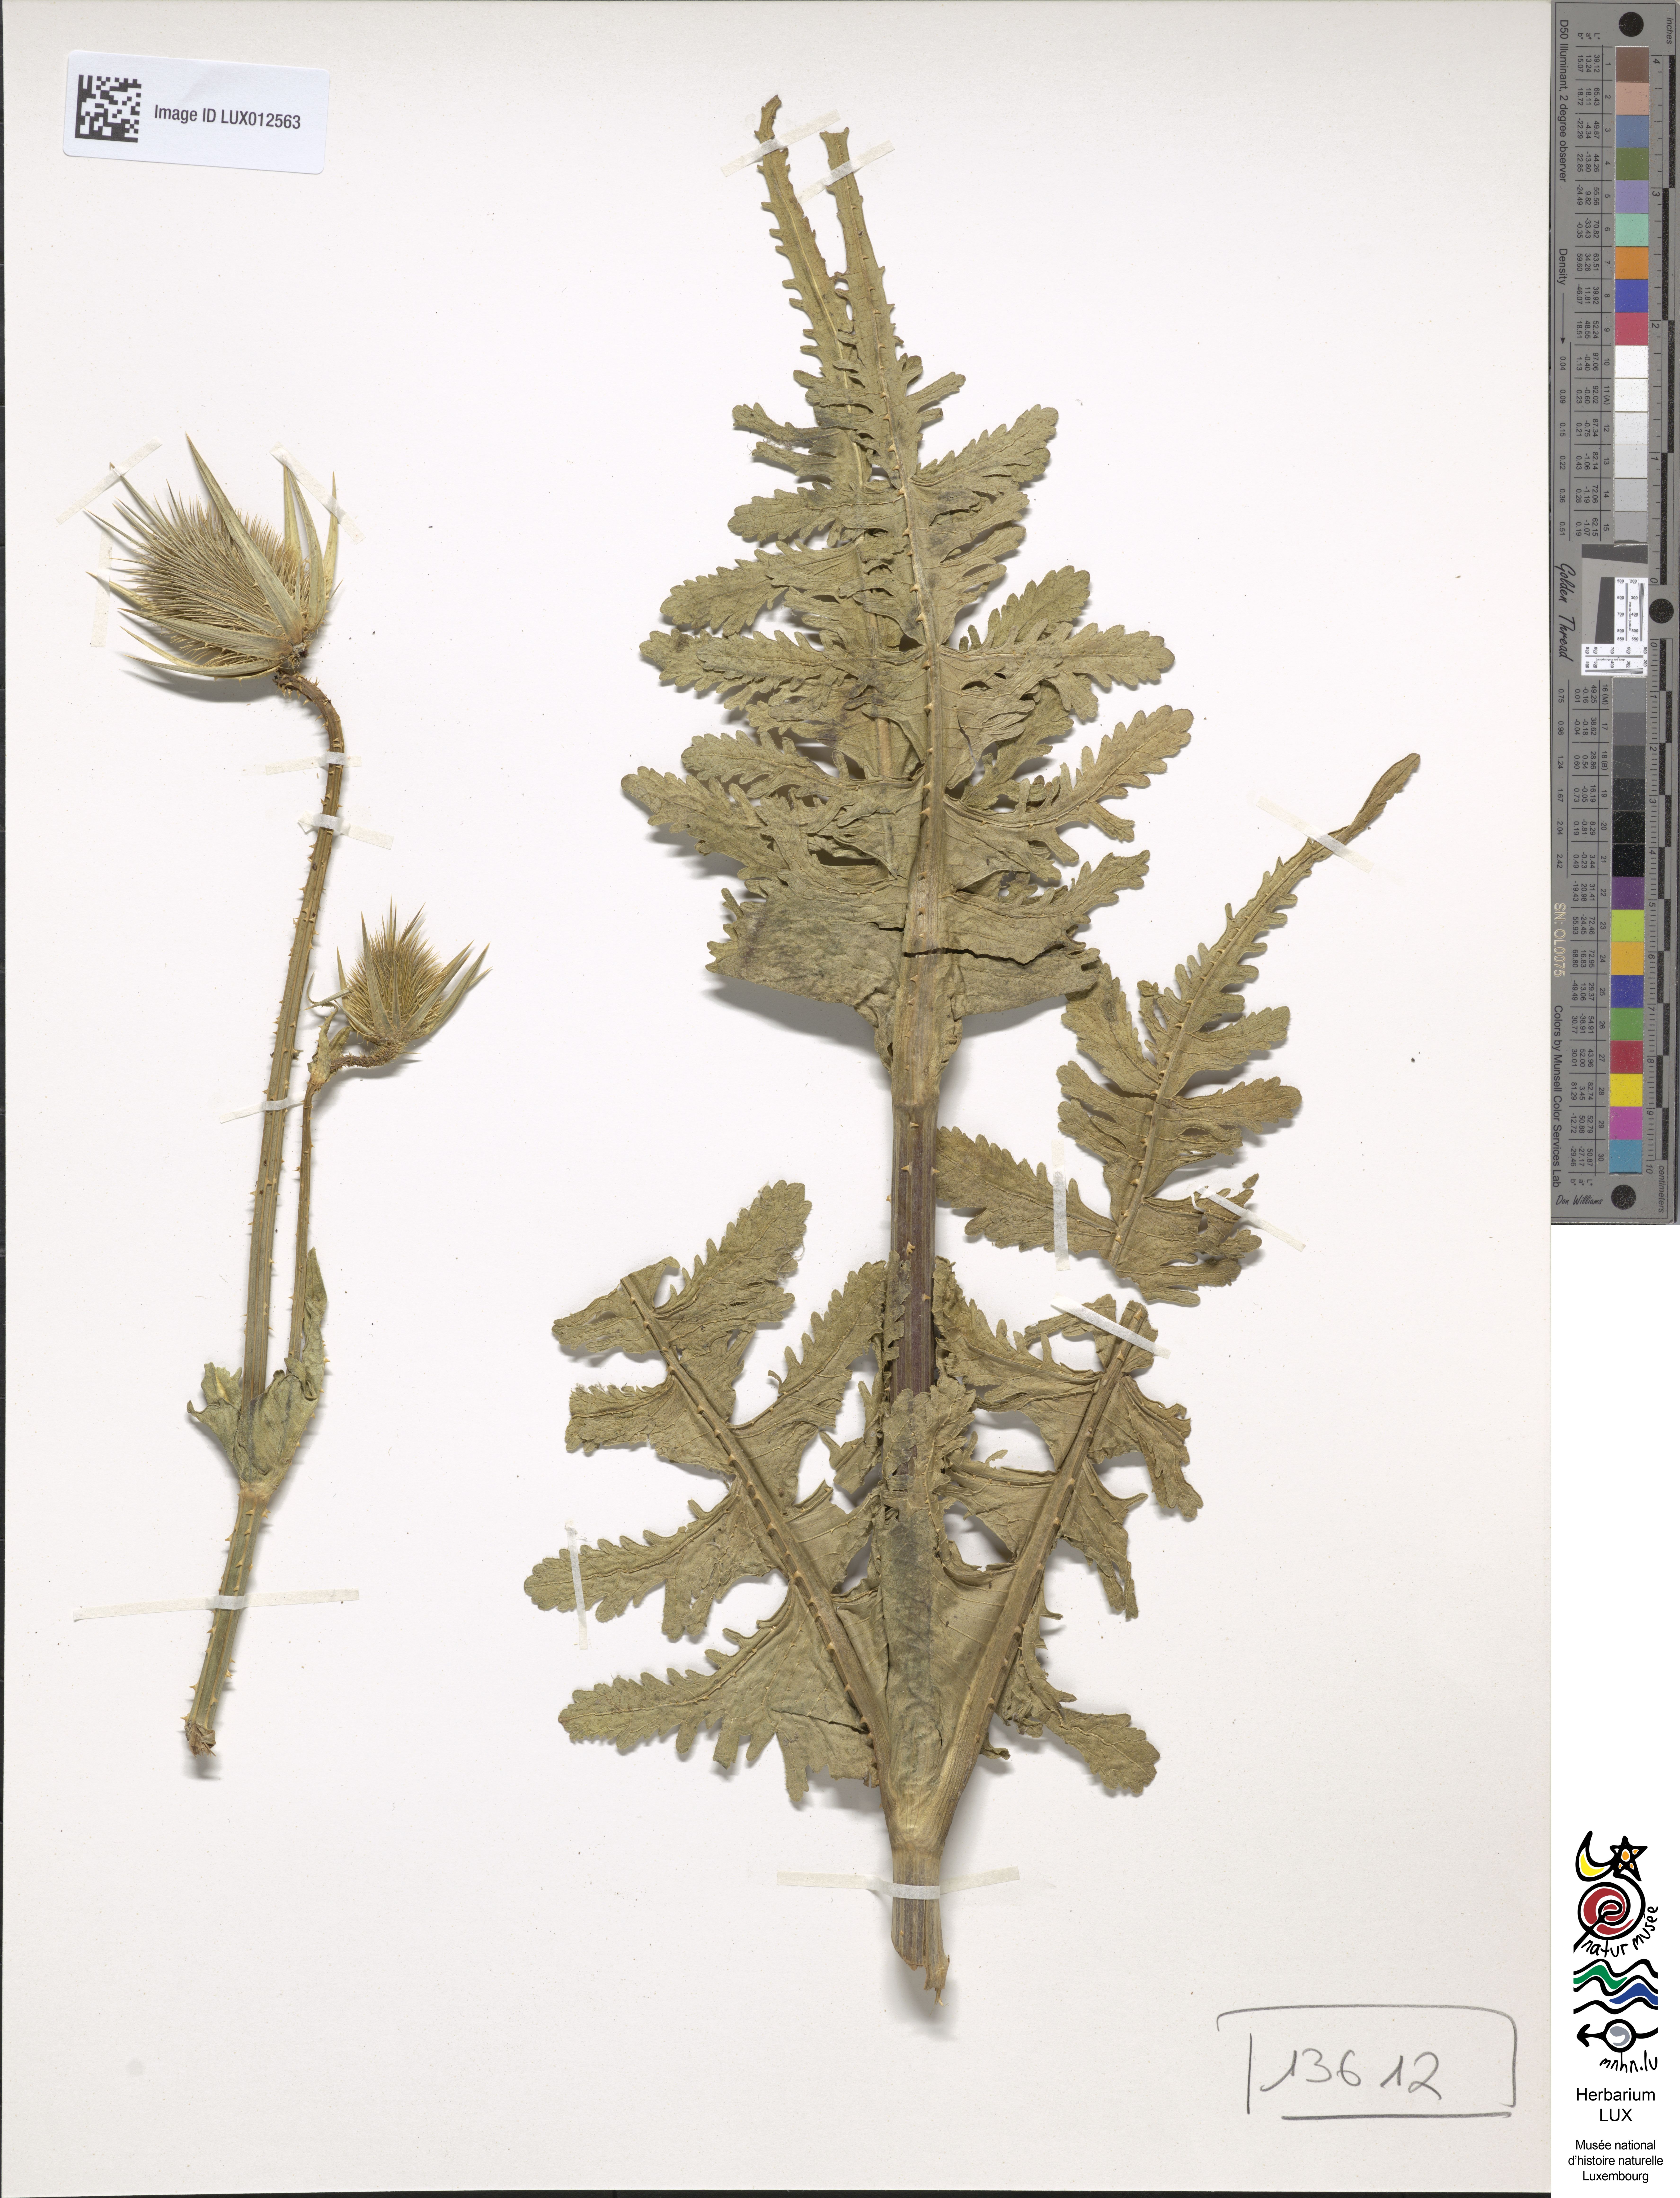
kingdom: Plantae
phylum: Tracheophyta
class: Magnoliopsida
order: Dipsacales
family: Caprifoliaceae
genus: Dipsacus
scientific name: Dipsacus laciniatus
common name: Cut-leaved teasel
